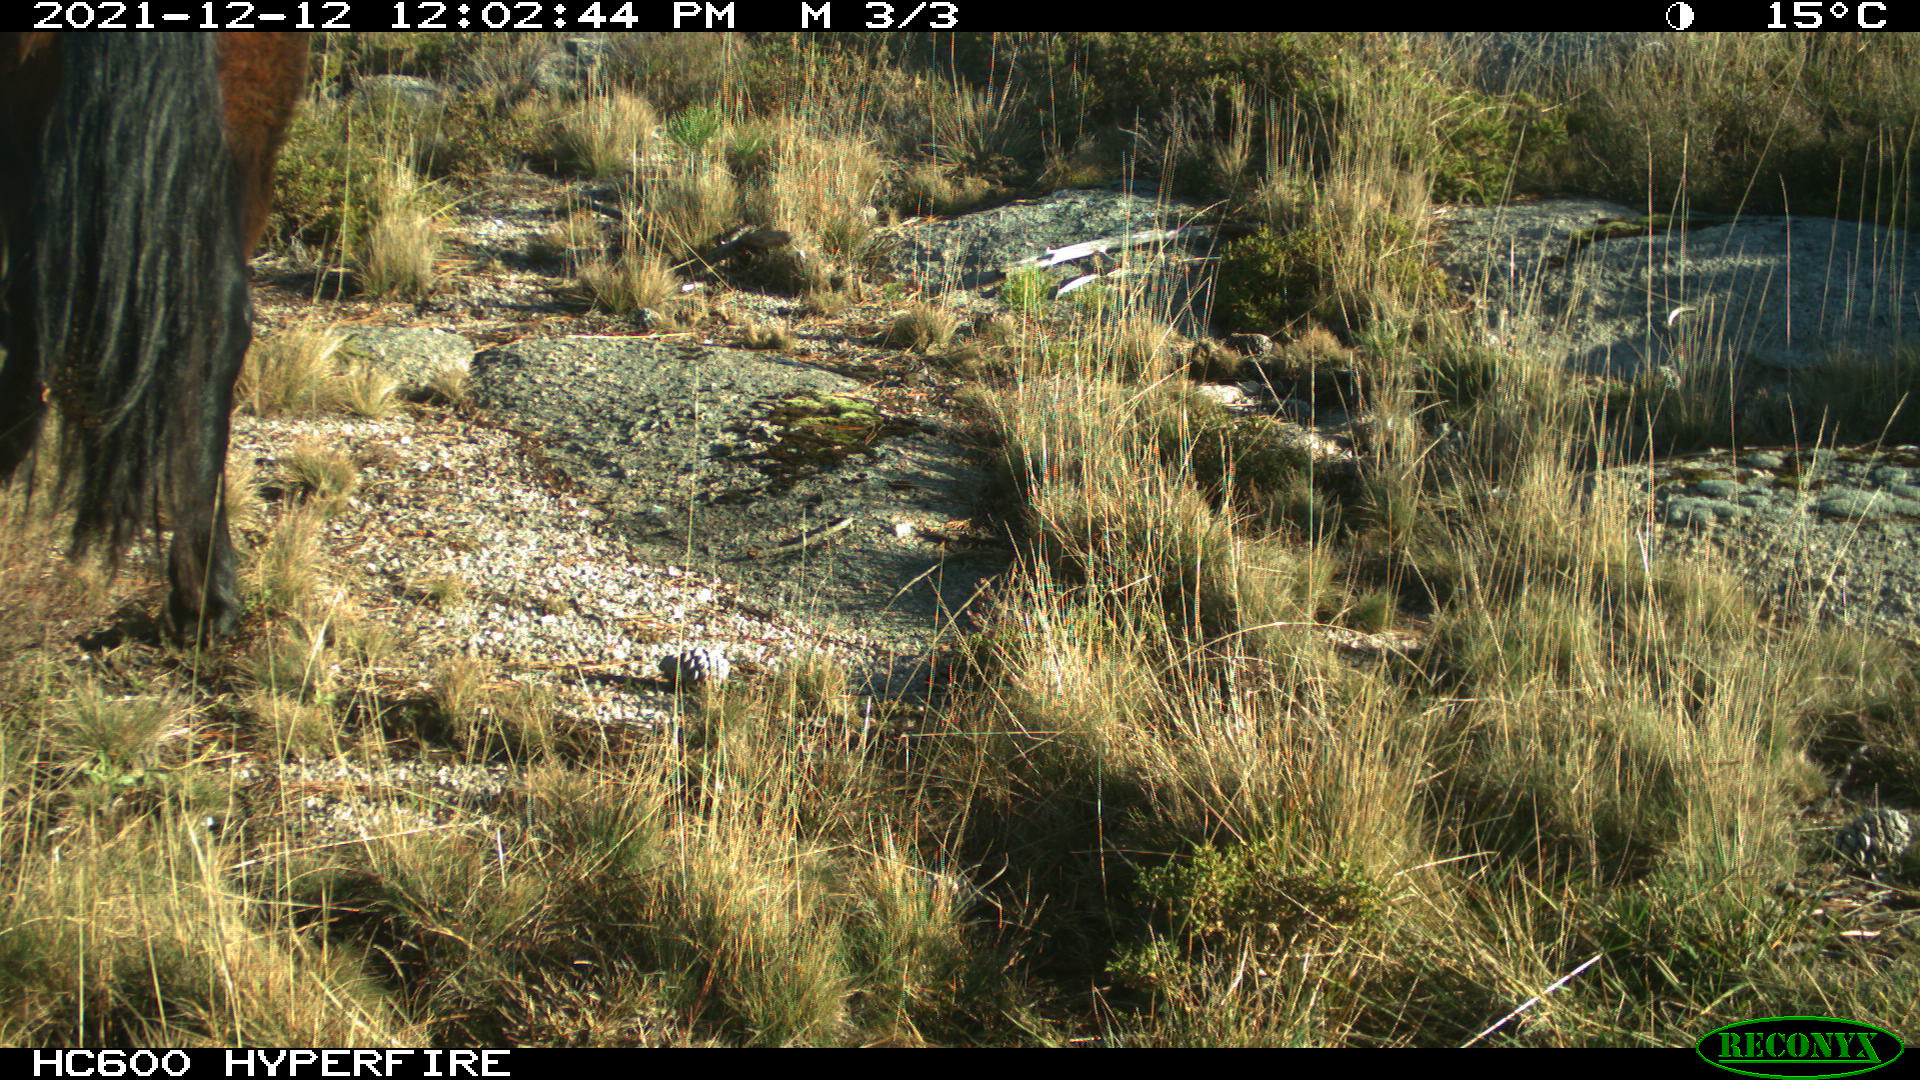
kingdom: Animalia
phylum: Chordata
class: Mammalia
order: Perissodactyla
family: Equidae
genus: Equus
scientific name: Equus caballus
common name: Horse
